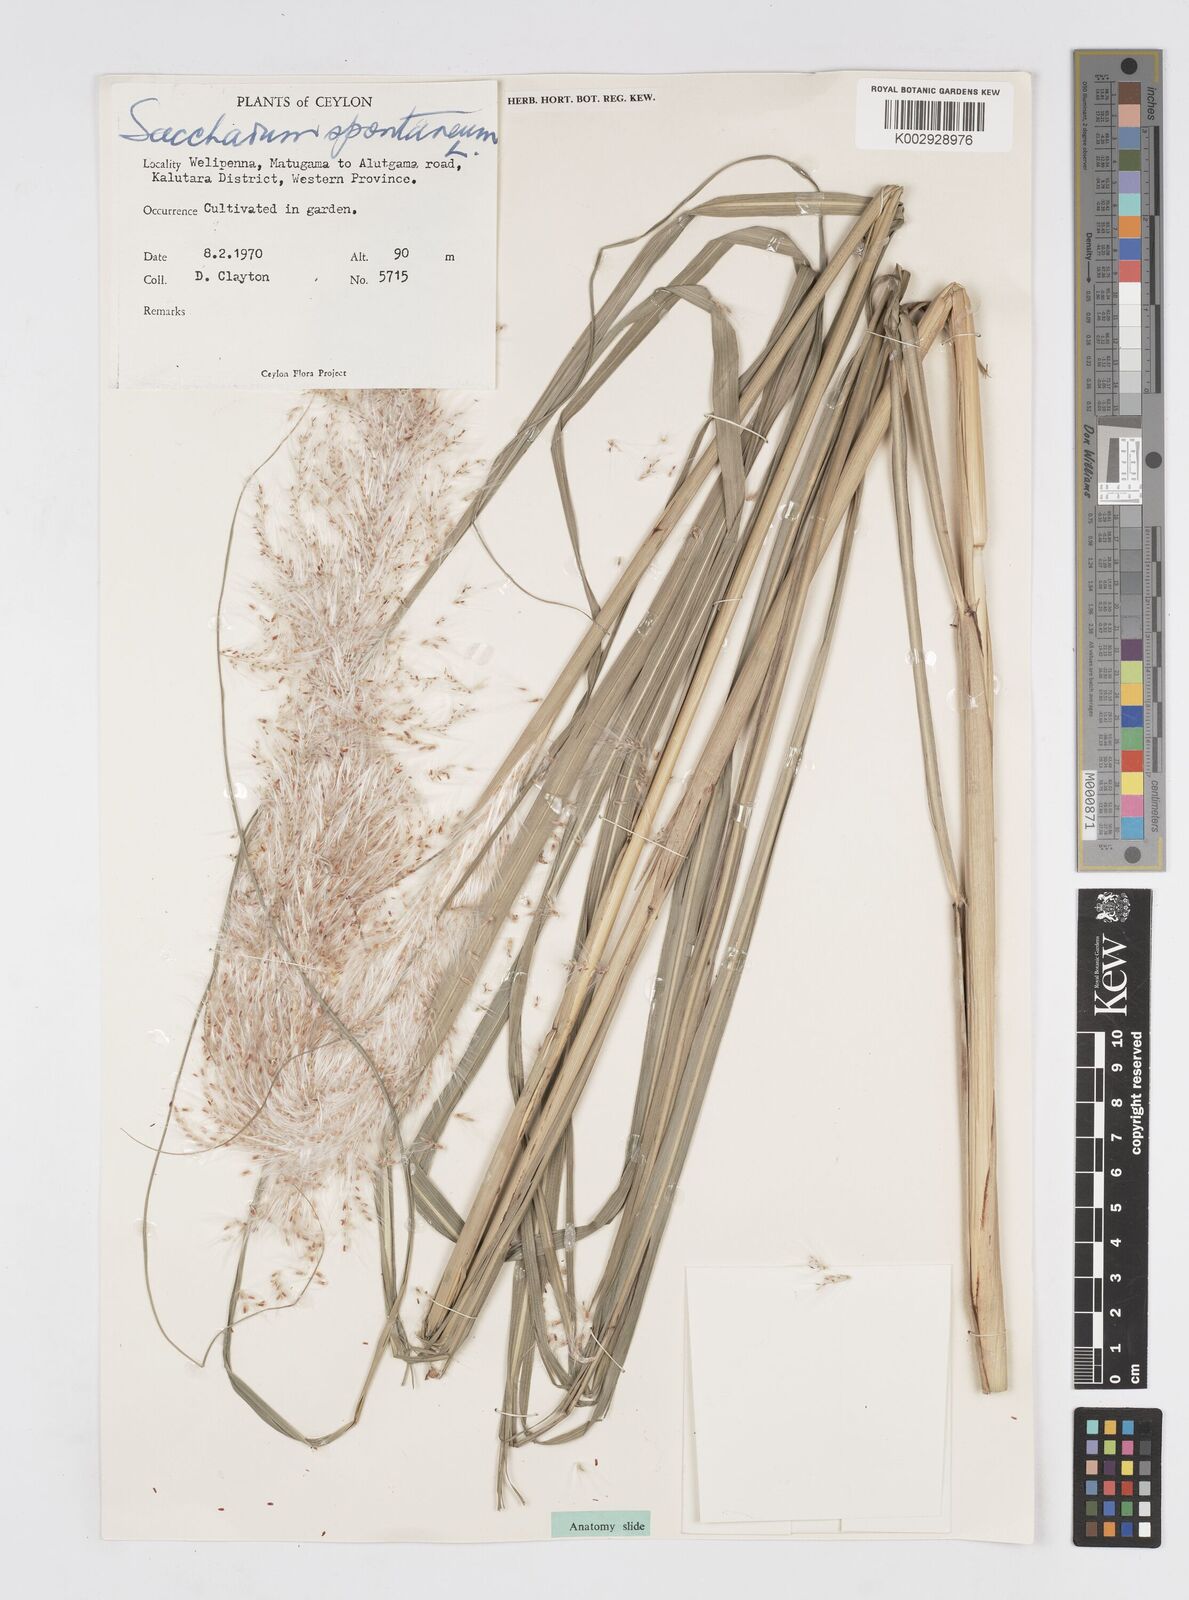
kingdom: Plantae
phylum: Tracheophyta
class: Liliopsida
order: Poales
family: Poaceae
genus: Saccharum
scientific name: Saccharum spontaneum
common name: Wild sugarcane
